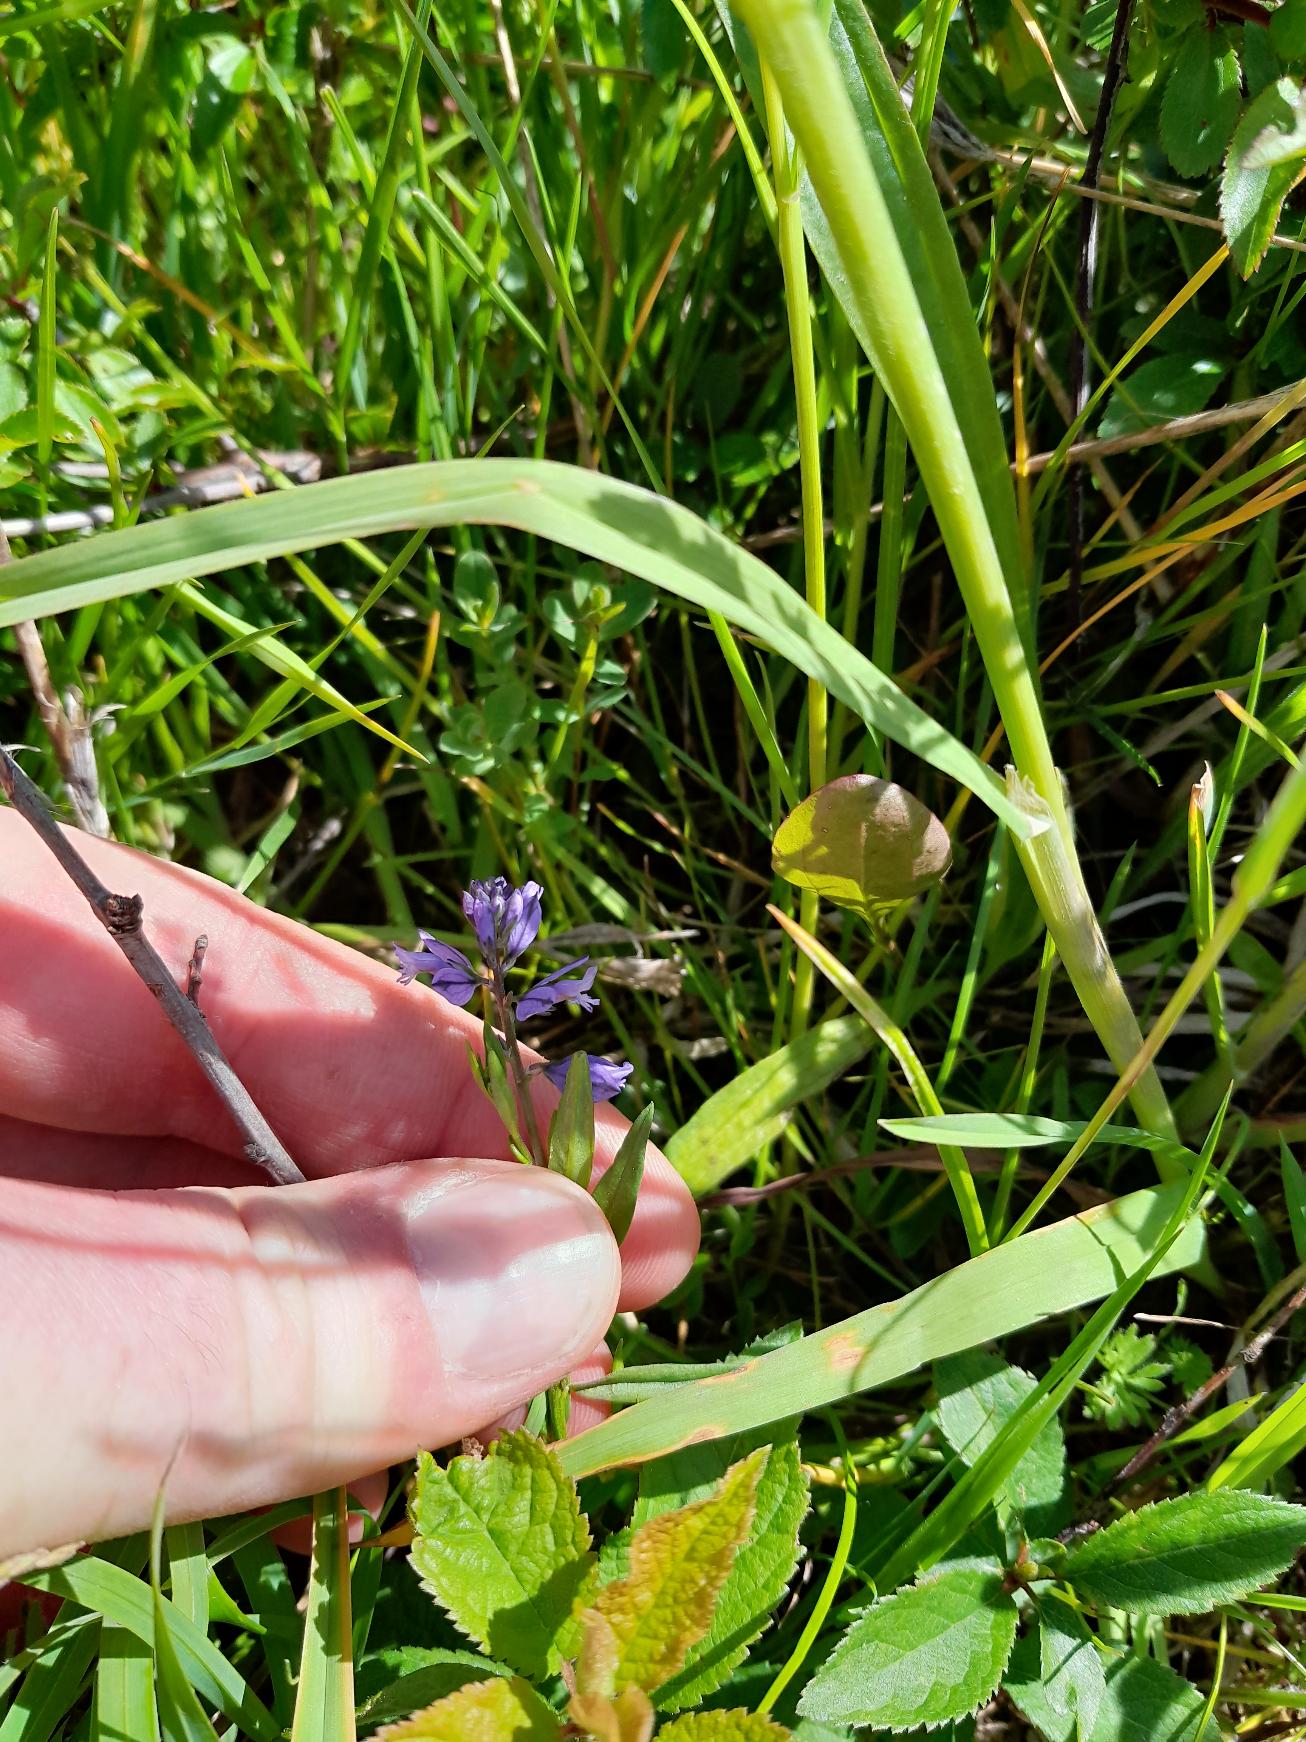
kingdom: Plantae
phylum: Tracheophyta
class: Magnoliopsida
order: Fabales
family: Polygalaceae
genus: Polygala
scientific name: Polygala vulgaris
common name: Almindelig mælkeurt
